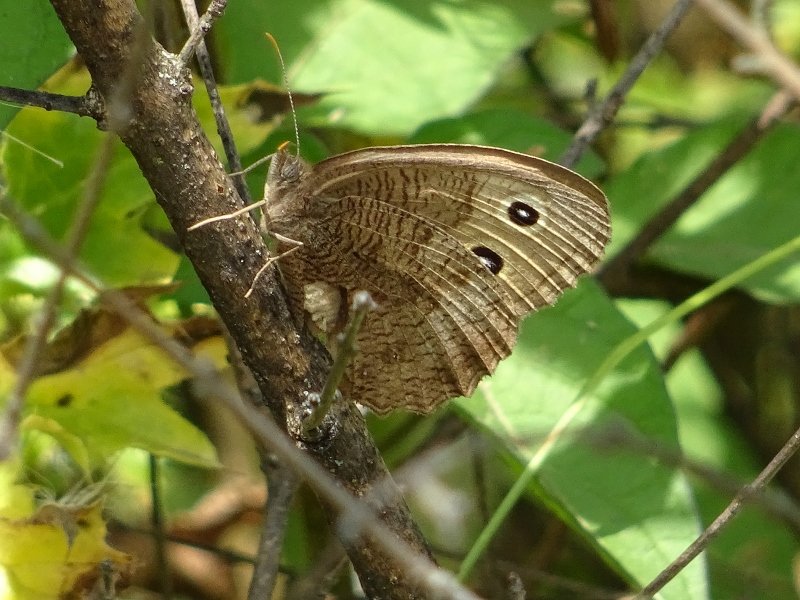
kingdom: Animalia
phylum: Arthropoda
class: Insecta
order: Lepidoptera
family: Nymphalidae
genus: Cercyonis
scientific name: Cercyonis pegala
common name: Common Wood-Nymph
